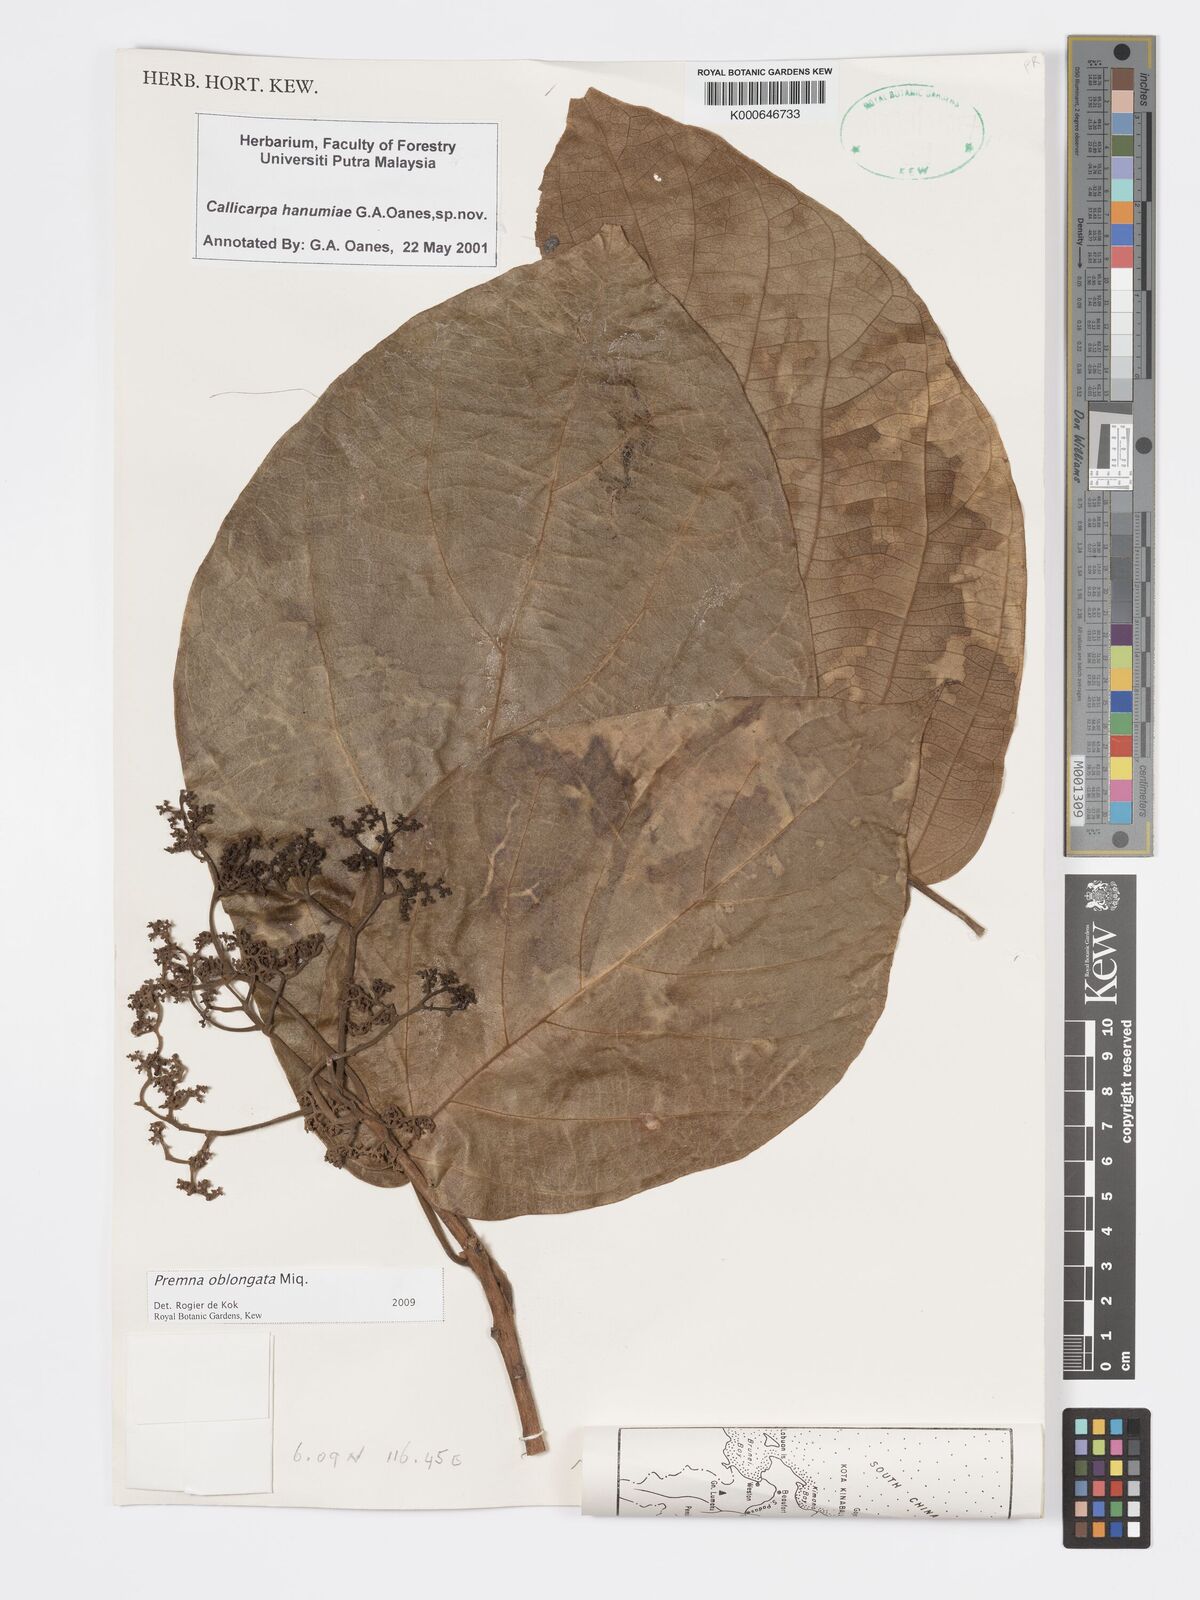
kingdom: Plantae
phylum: Tracheophyta
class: Magnoliopsida
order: Lamiales
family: Lamiaceae
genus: Premna
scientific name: Premna oblongata
